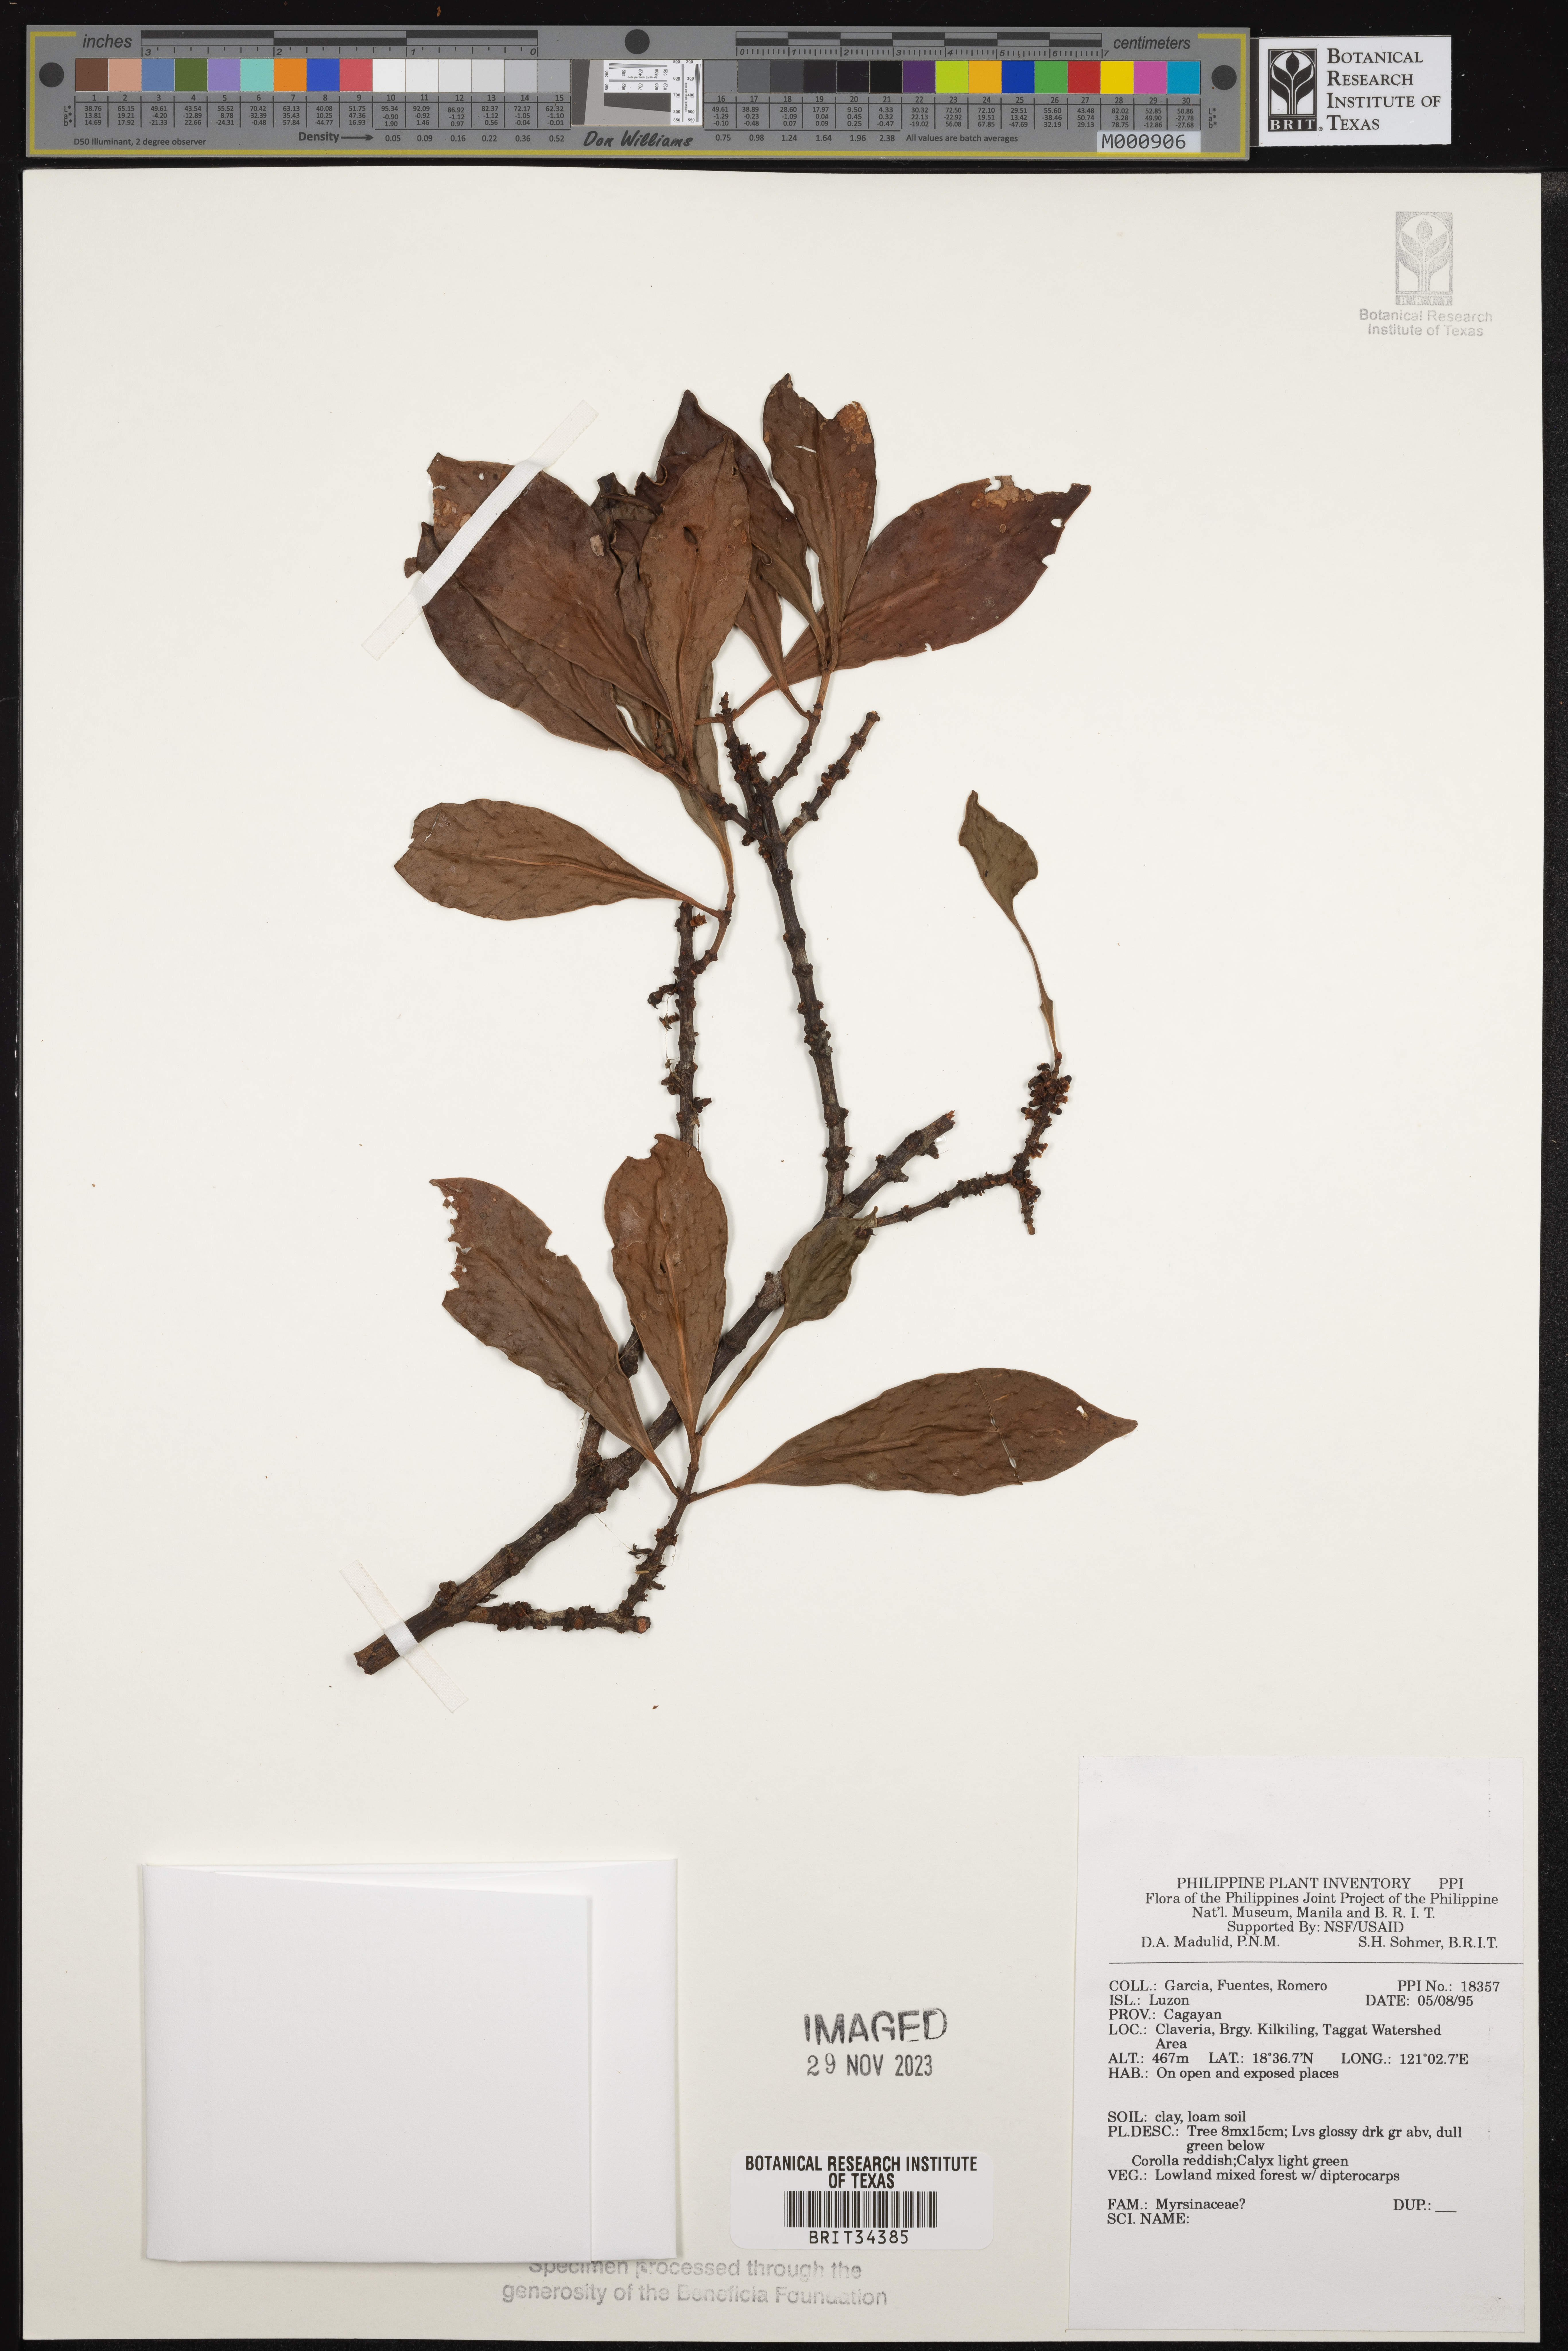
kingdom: Plantae
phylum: Tracheophyta
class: Magnoliopsida
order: Ericales
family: Primulaceae
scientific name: Primulaceae
